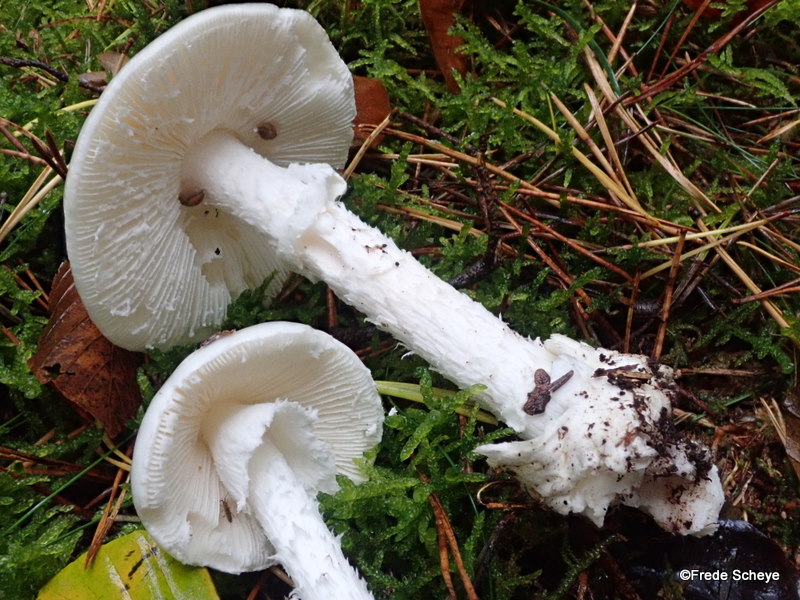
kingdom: Fungi
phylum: Basidiomycota
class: Agaricomycetes
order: Agaricales
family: Amanitaceae
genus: Amanita
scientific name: Amanita virosa
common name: snehvid fluesvamp
